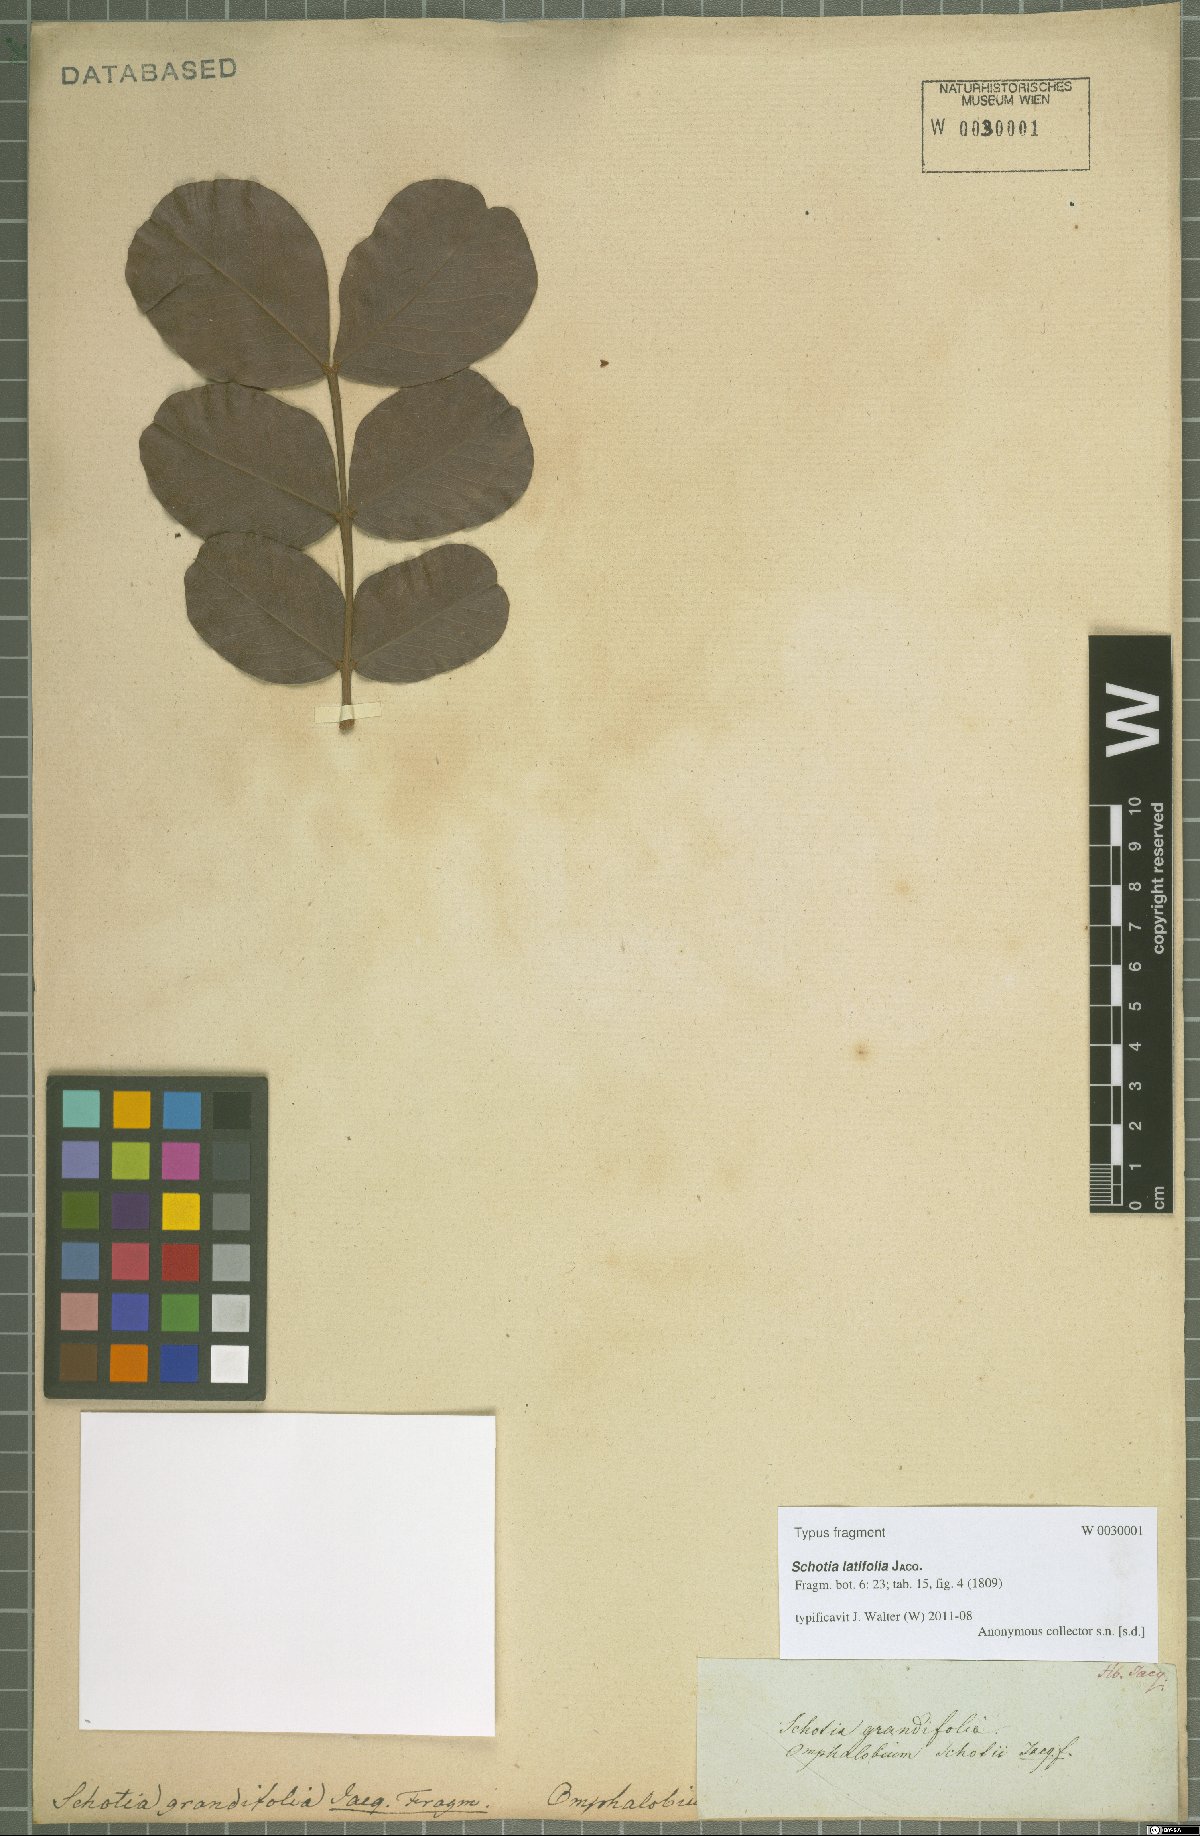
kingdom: Plantae
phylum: Tracheophyta
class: Magnoliopsida
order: Fabales
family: Fabaceae
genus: Schotia
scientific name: Schotia latifolia
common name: Bush boer-bean
